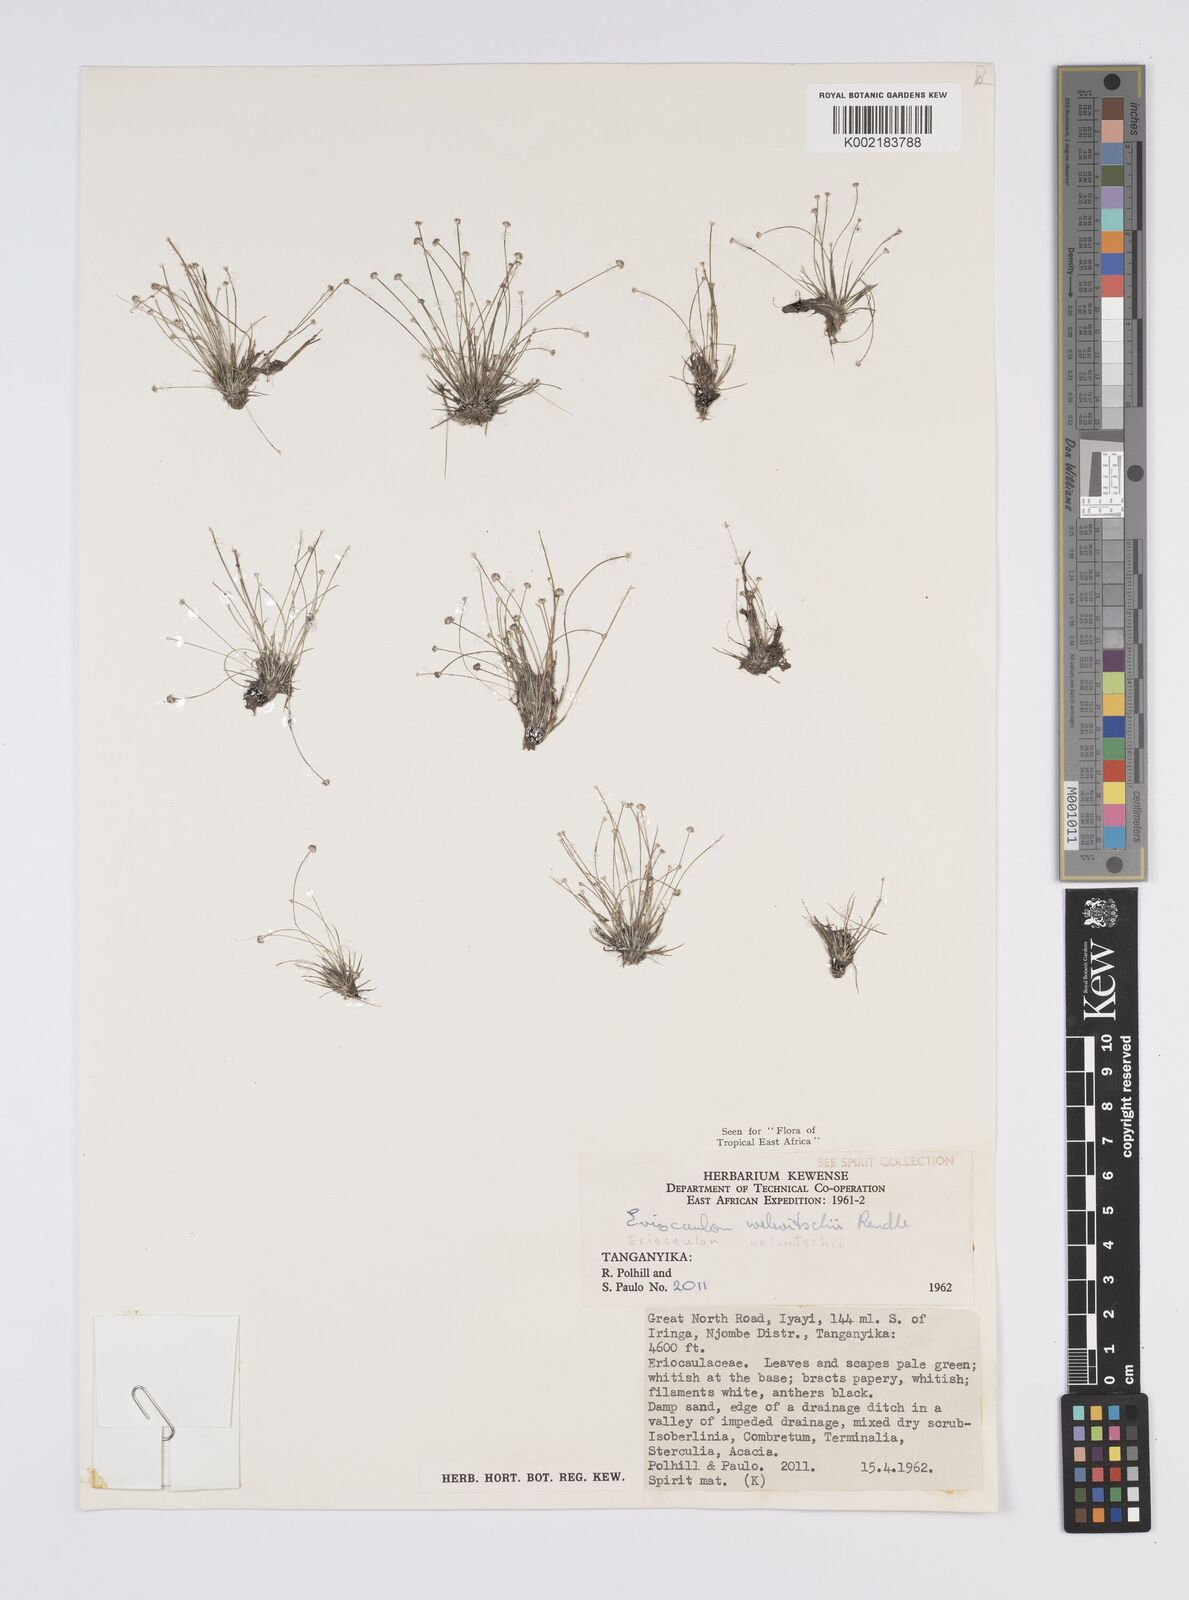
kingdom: Plantae
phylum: Tracheophyta
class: Liliopsida
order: Poales
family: Eriocaulaceae
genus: Eriocaulon
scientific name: Eriocaulon welwitschii
